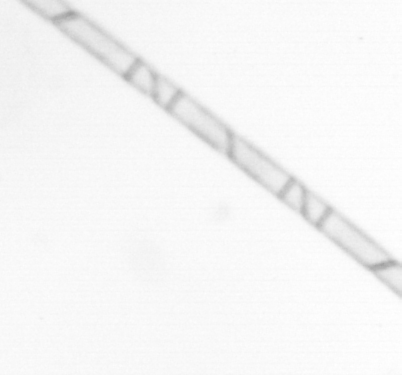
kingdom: Chromista
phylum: Ochrophyta
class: Bacillariophyceae
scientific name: Bacillariophyceae
